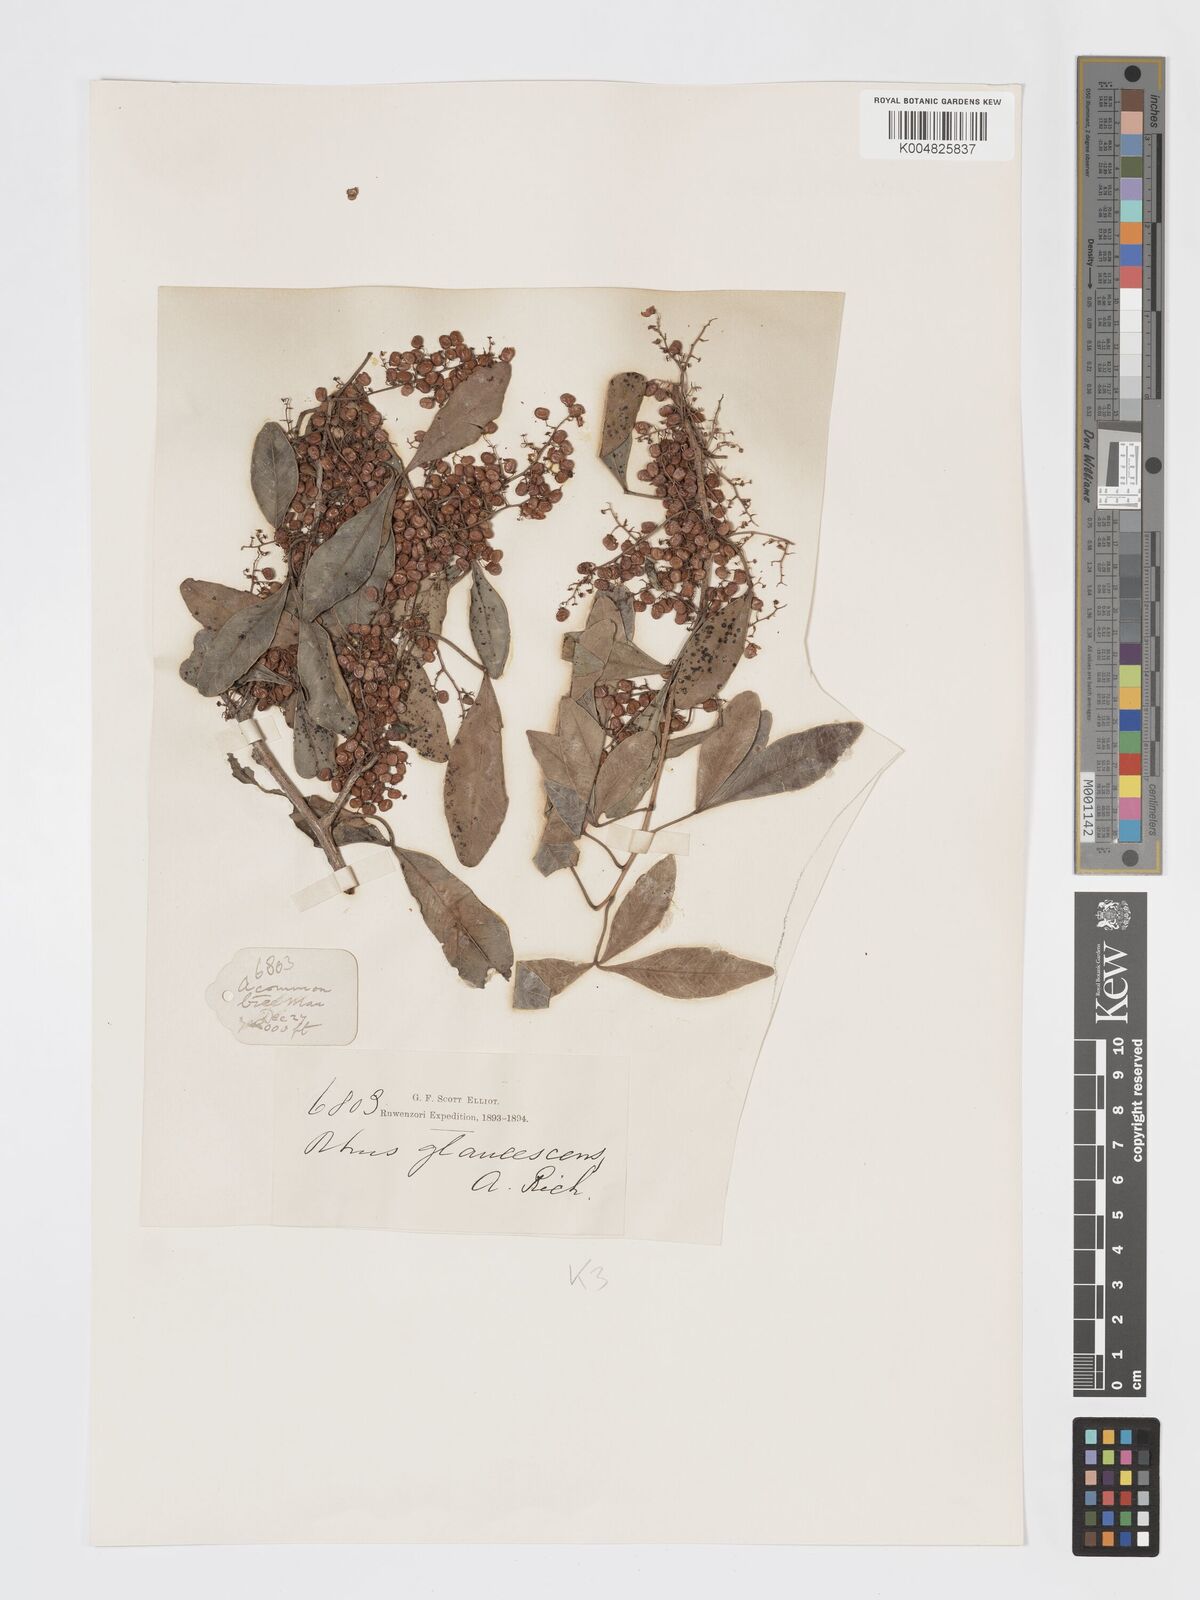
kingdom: Plantae
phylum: Tracheophyta
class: Magnoliopsida
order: Sapindales
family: Anacardiaceae
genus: Searsia
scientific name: Searsia natalensis
